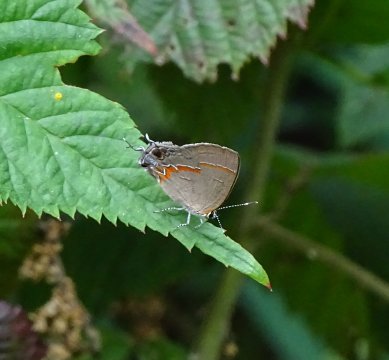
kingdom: Animalia
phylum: Arthropoda
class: Insecta
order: Lepidoptera
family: Lycaenidae
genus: Calycopis
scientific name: Calycopis cecrops
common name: Red-banded Hairstreak
